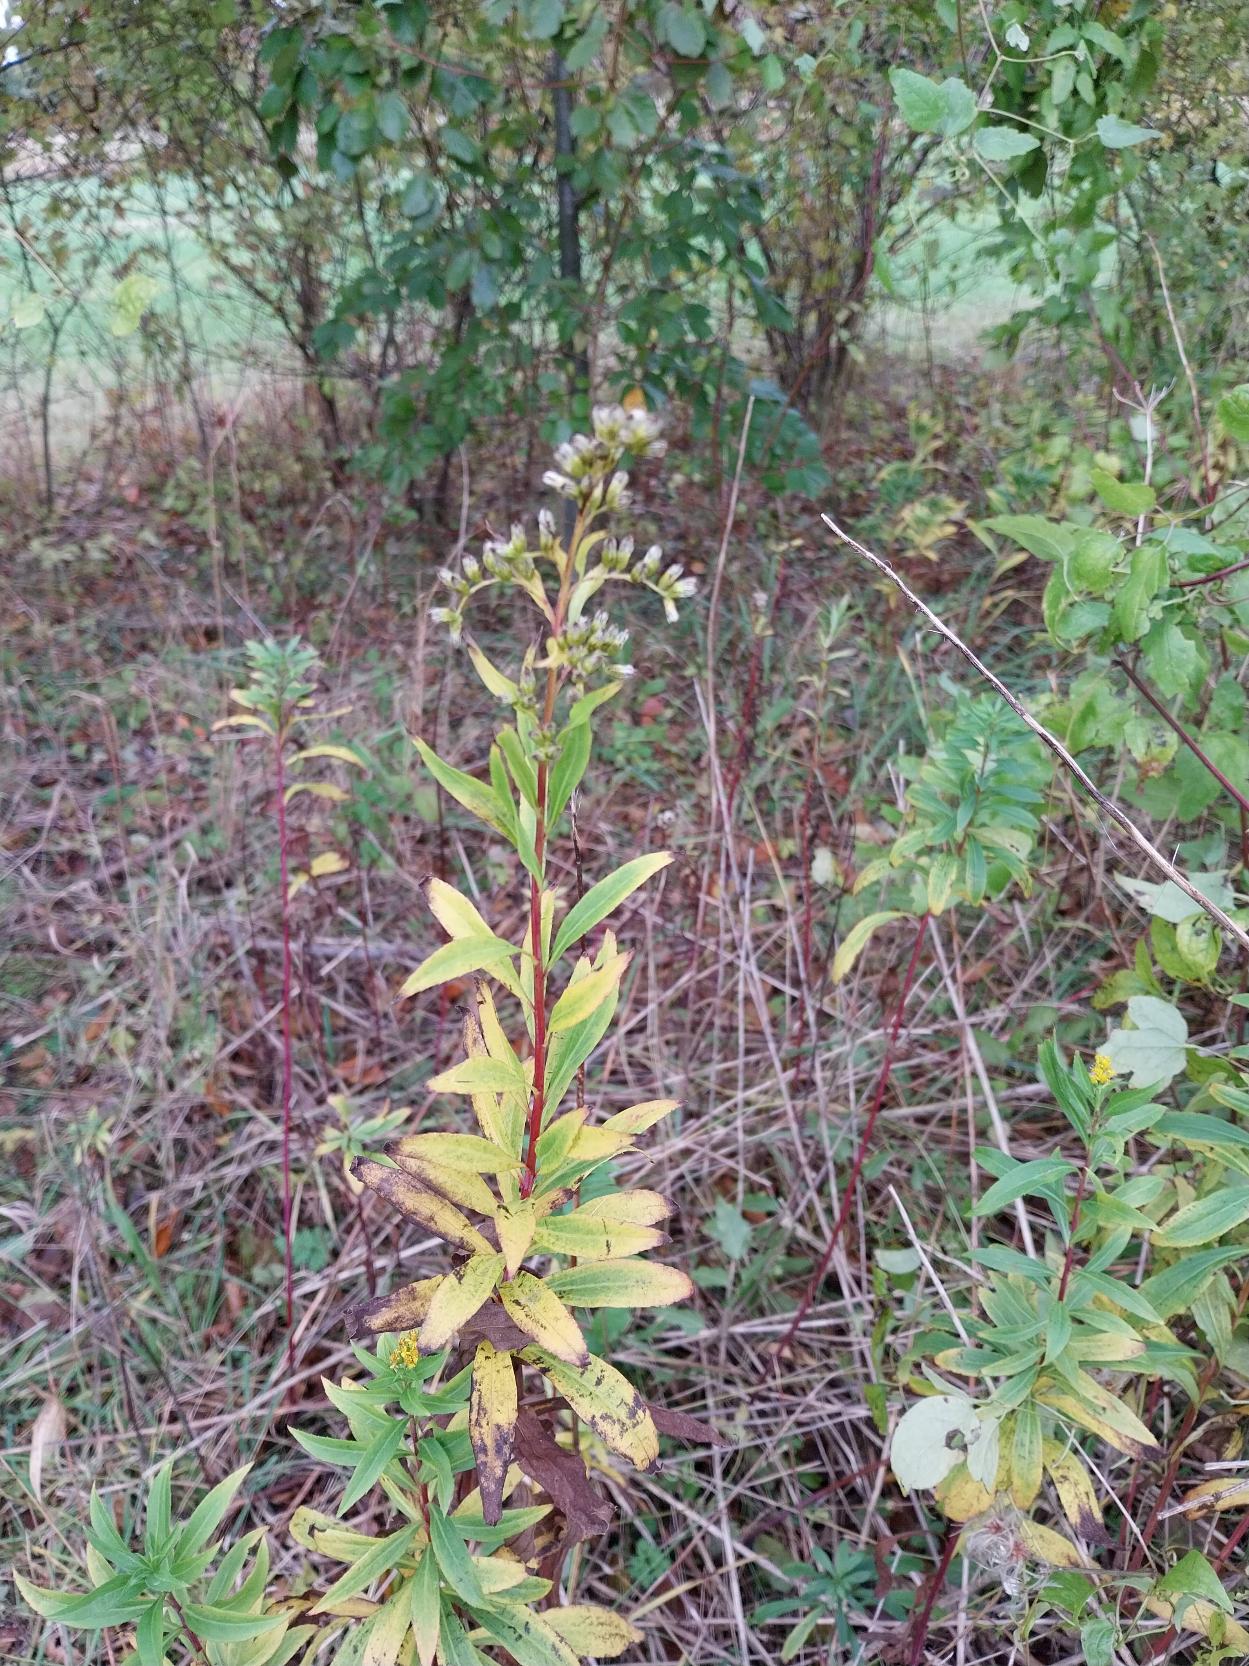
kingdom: Plantae
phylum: Tracheophyta
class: Magnoliopsida
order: Asterales
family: Asteraceae
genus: Solidago
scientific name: Solidago gigantea
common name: Sildig gyldenris
